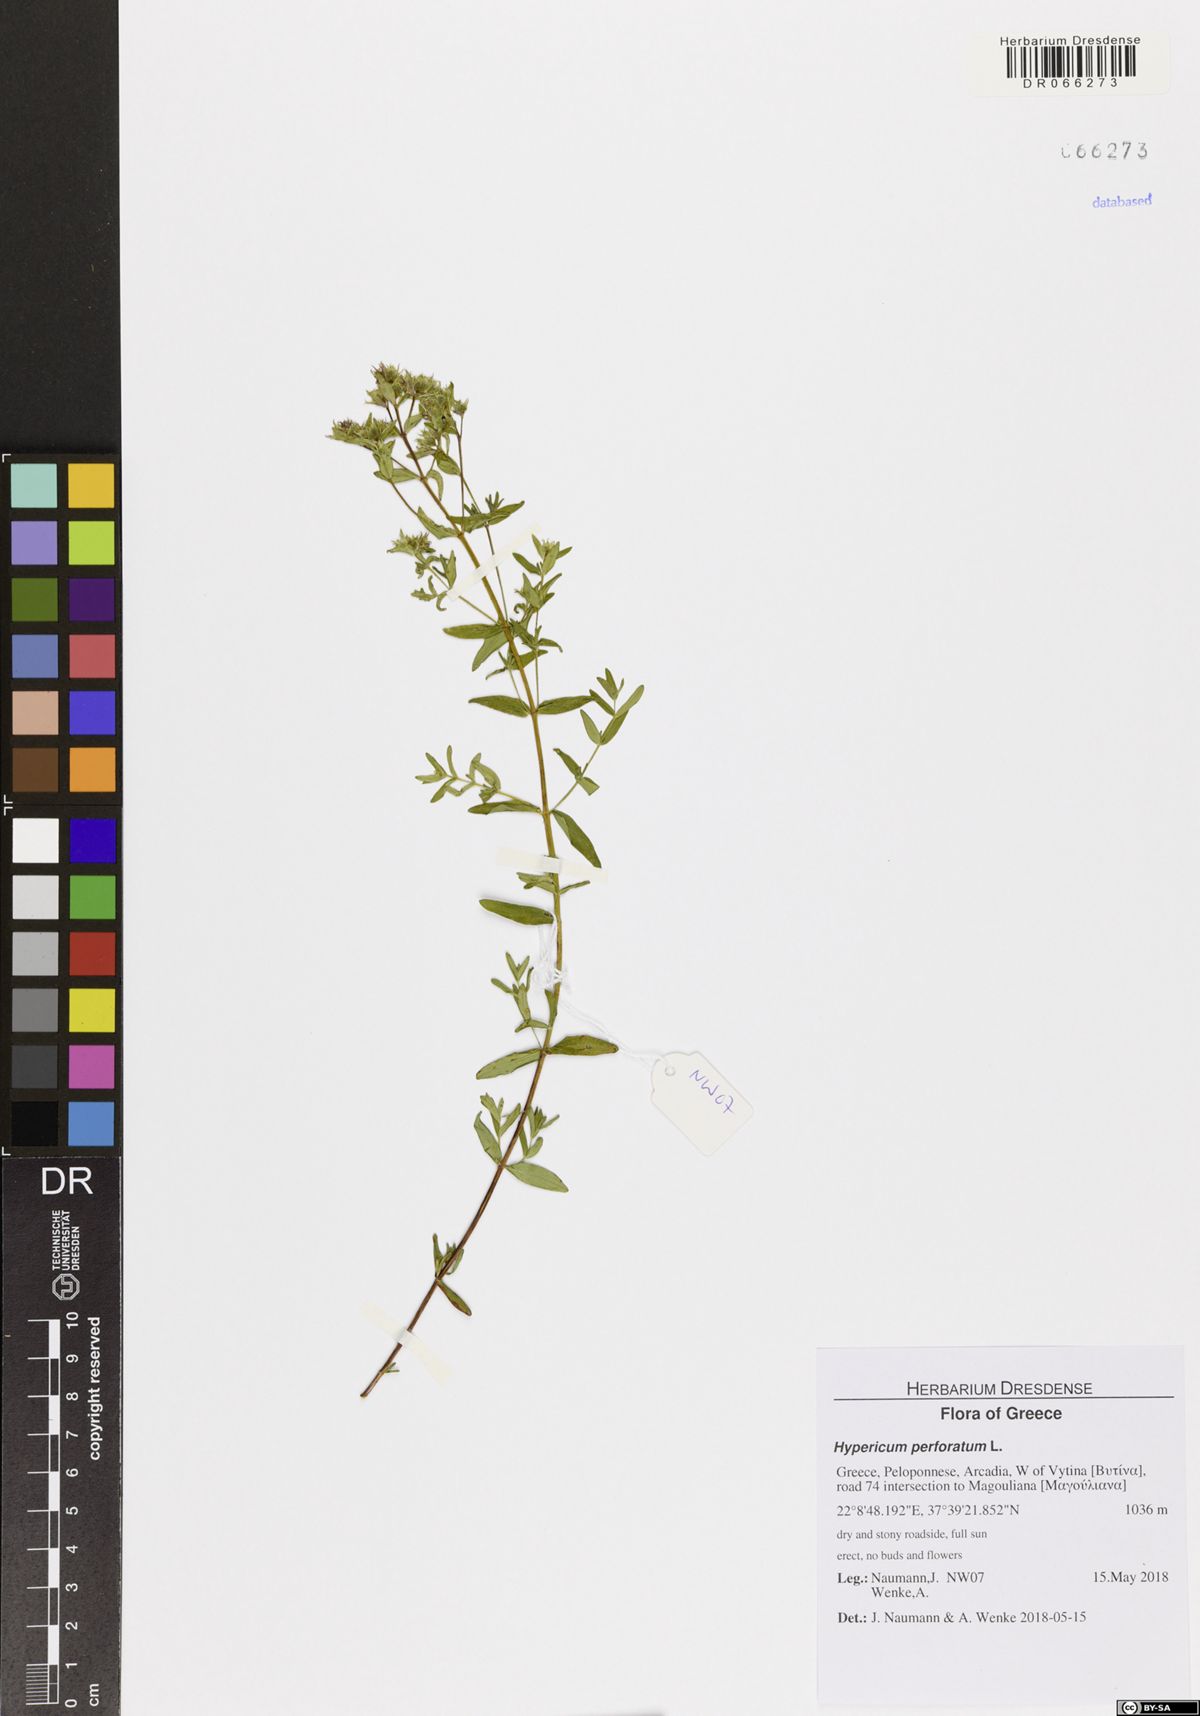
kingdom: Plantae
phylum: Tracheophyta
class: Magnoliopsida
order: Malpighiales
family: Hypericaceae
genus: Hypericum
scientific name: Hypericum perforatum
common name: Common st. johnswort
